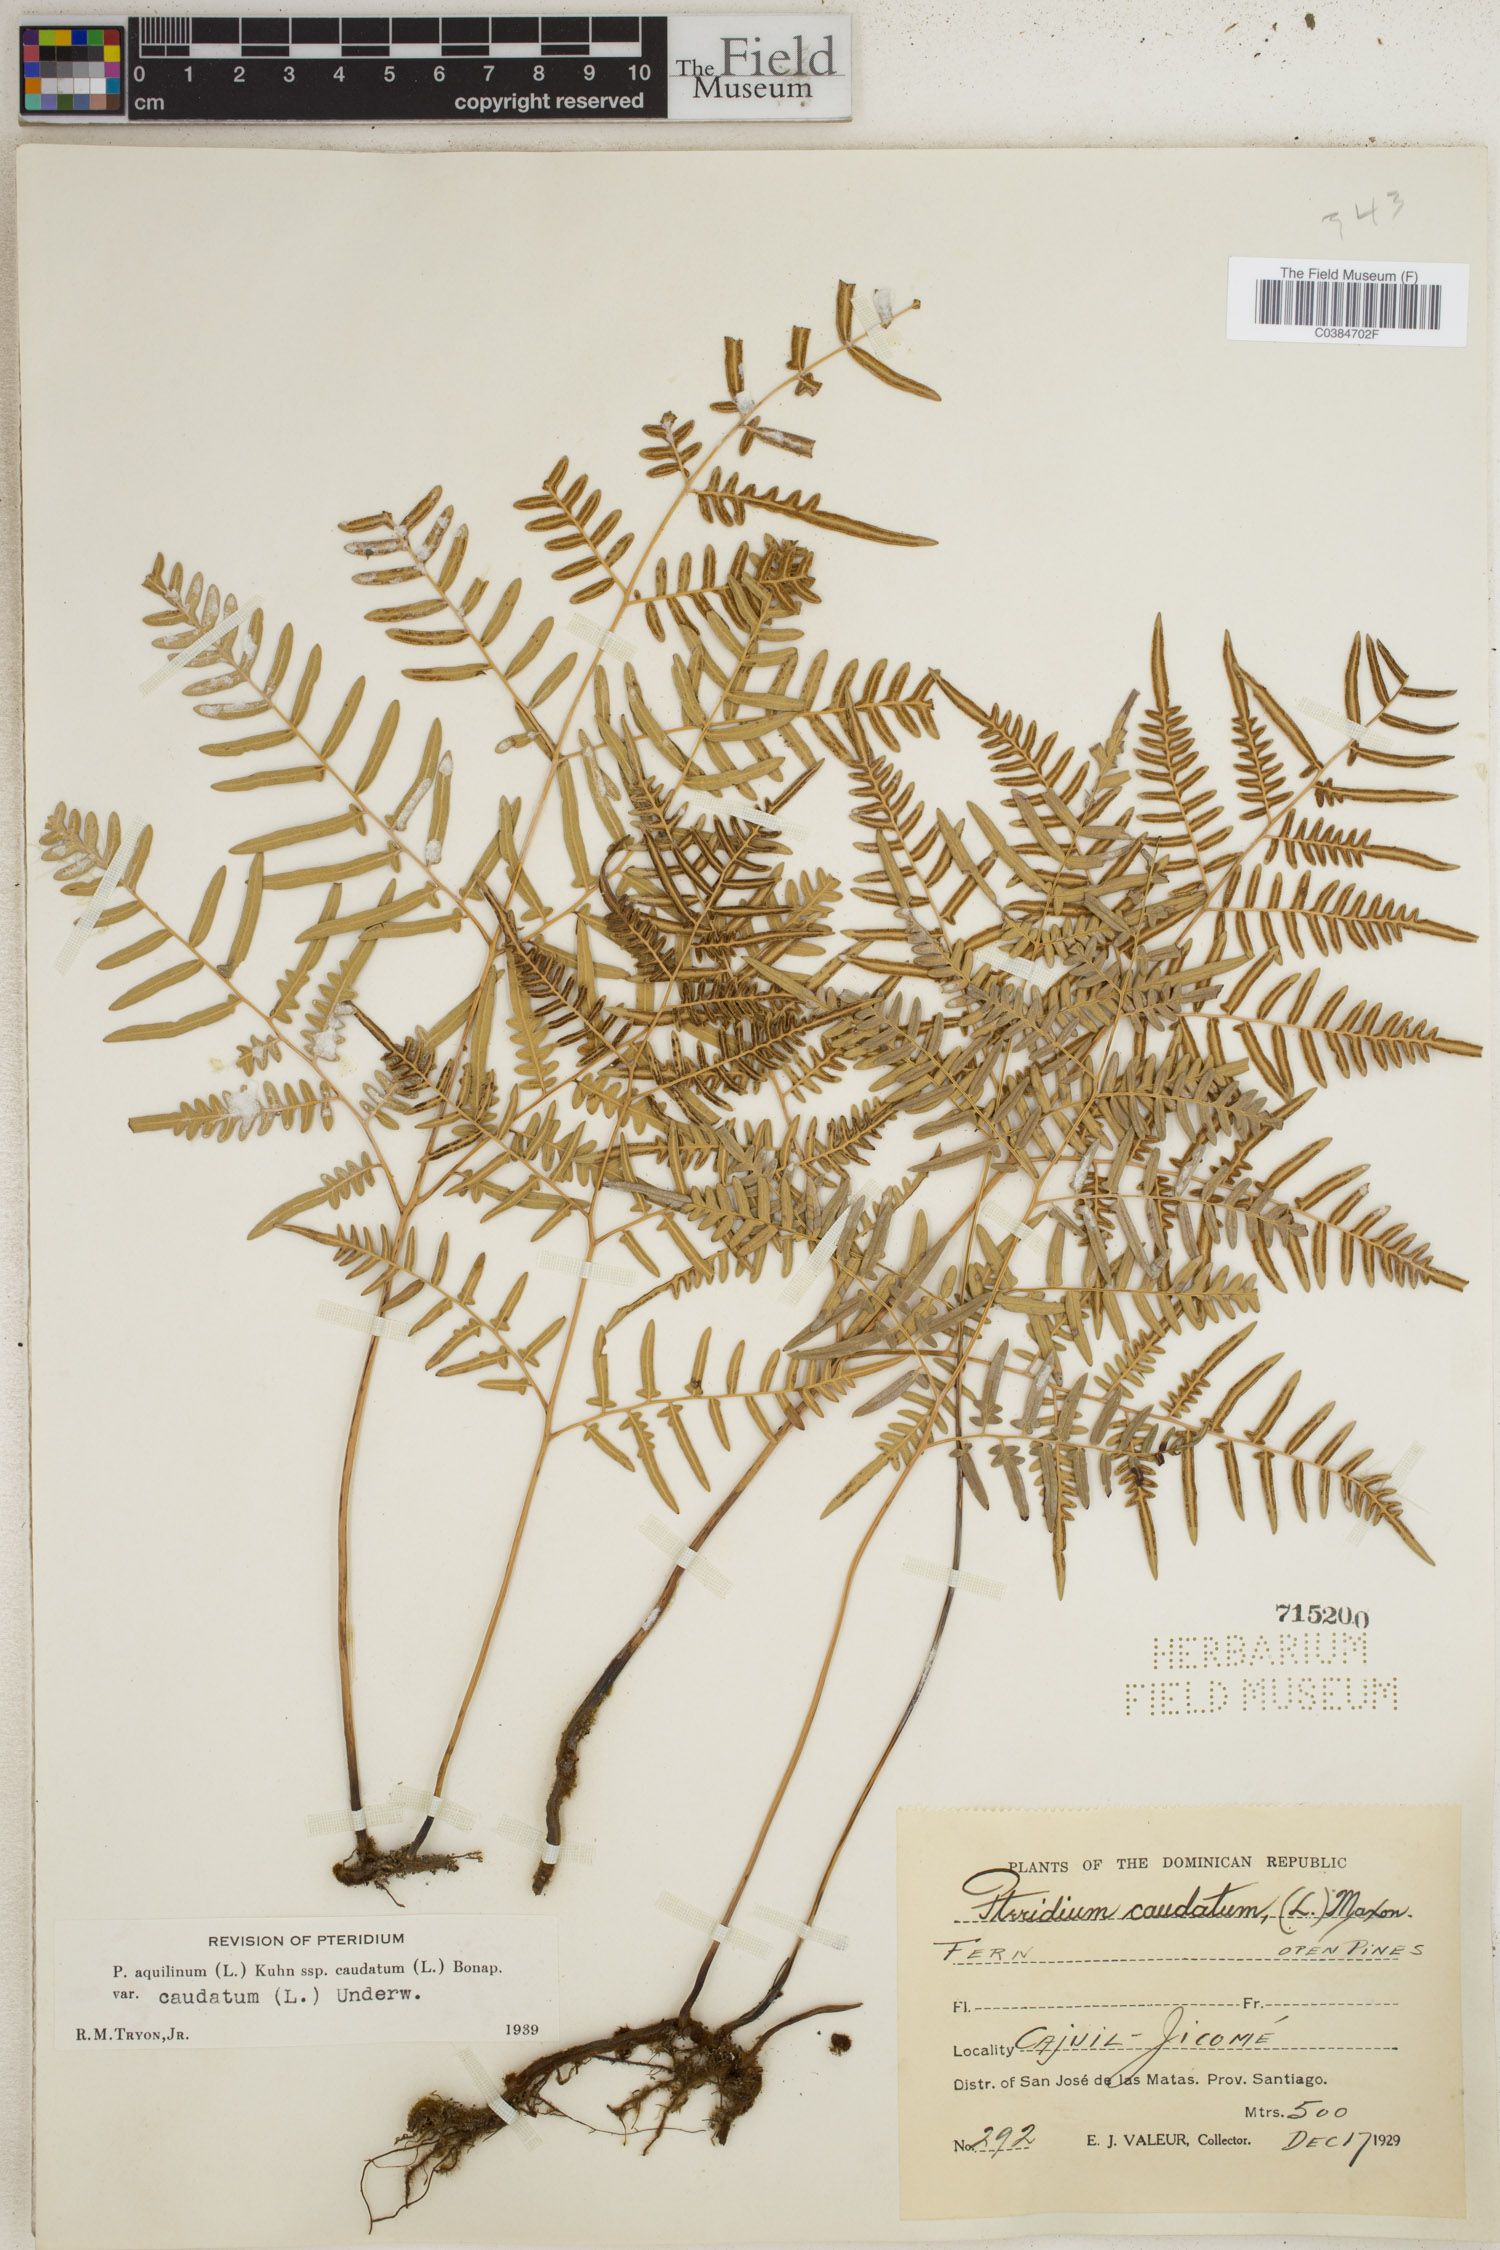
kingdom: Plantae
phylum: Tracheophyta
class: Polypodiopsida
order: Polypodiales
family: Dennstaedtiaceae
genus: Pteridium
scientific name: Pteridium caudatum
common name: Southern bracken fern
